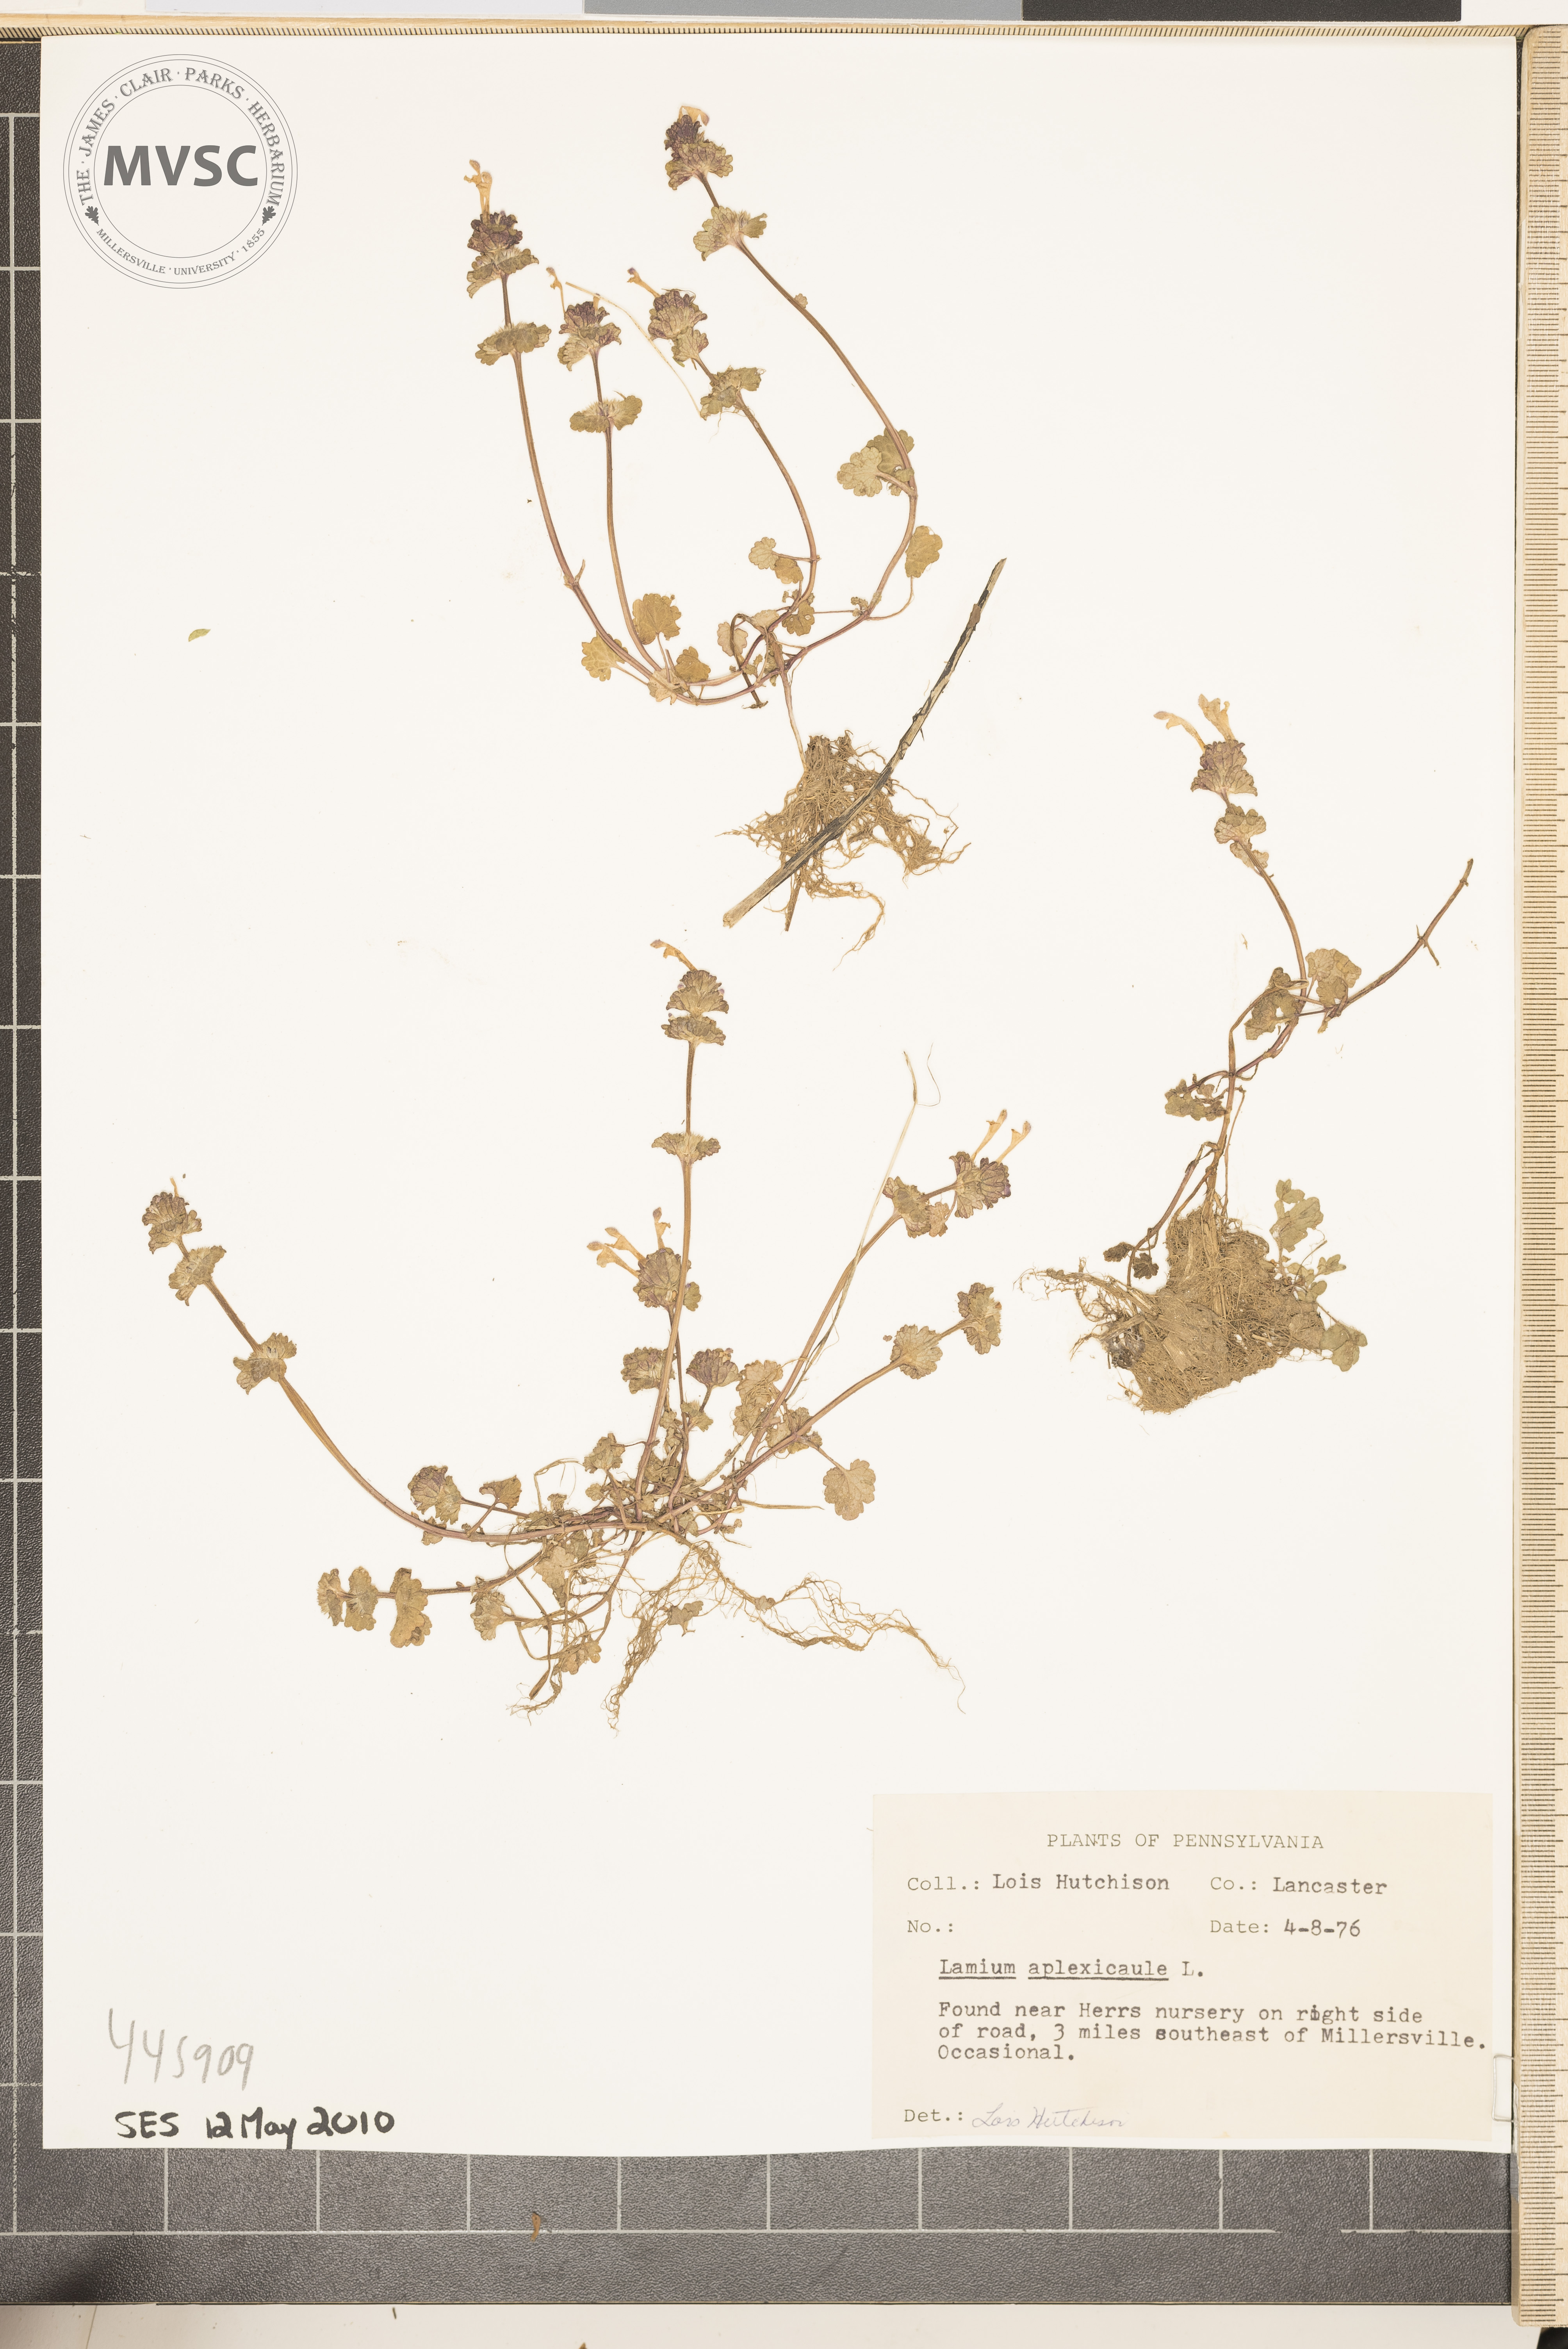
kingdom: Plantae
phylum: Tracheophyta
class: Magnoliopsida
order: Lamiales
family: Lamiaceae
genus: Lamium
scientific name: Lamium amplexicaule
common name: Henbit dead-nettle
